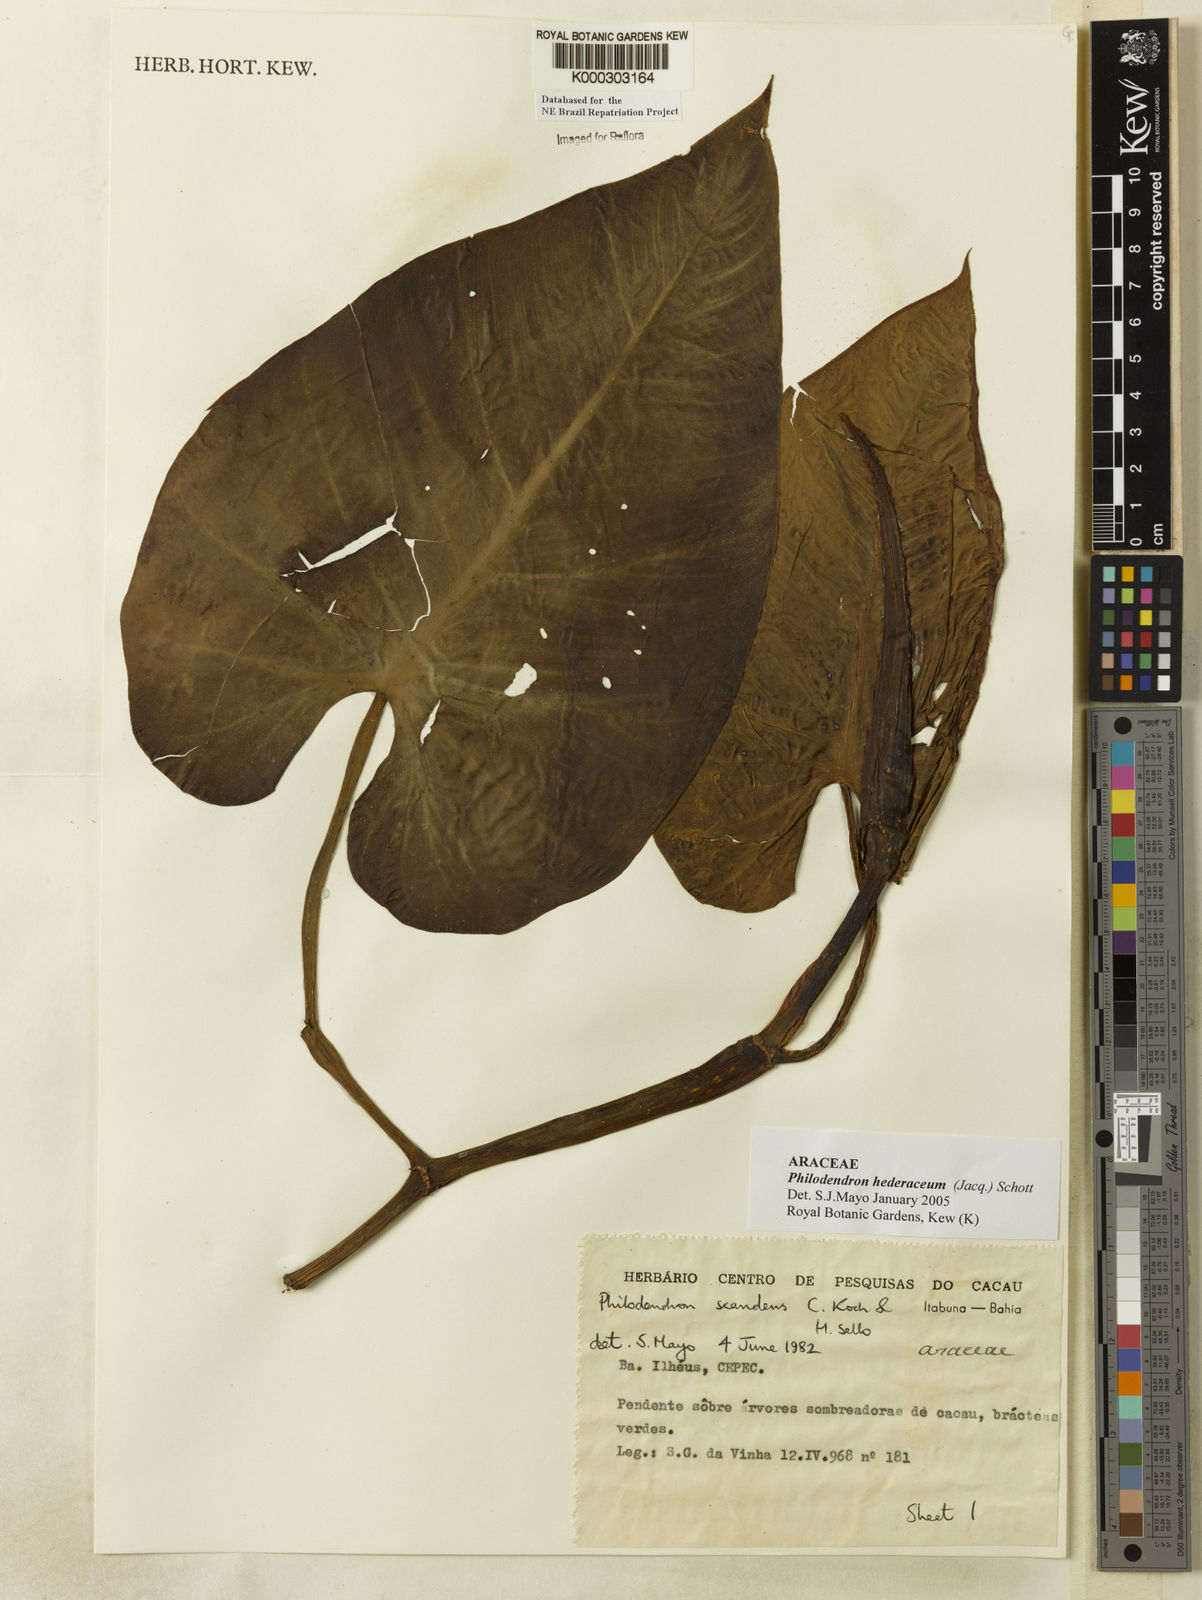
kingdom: Plantae
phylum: Tracheophyta
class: Liliopsida
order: Alismatales
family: Araceae
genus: Philodendron
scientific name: Philodendron hederaceum
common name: Vilevine
